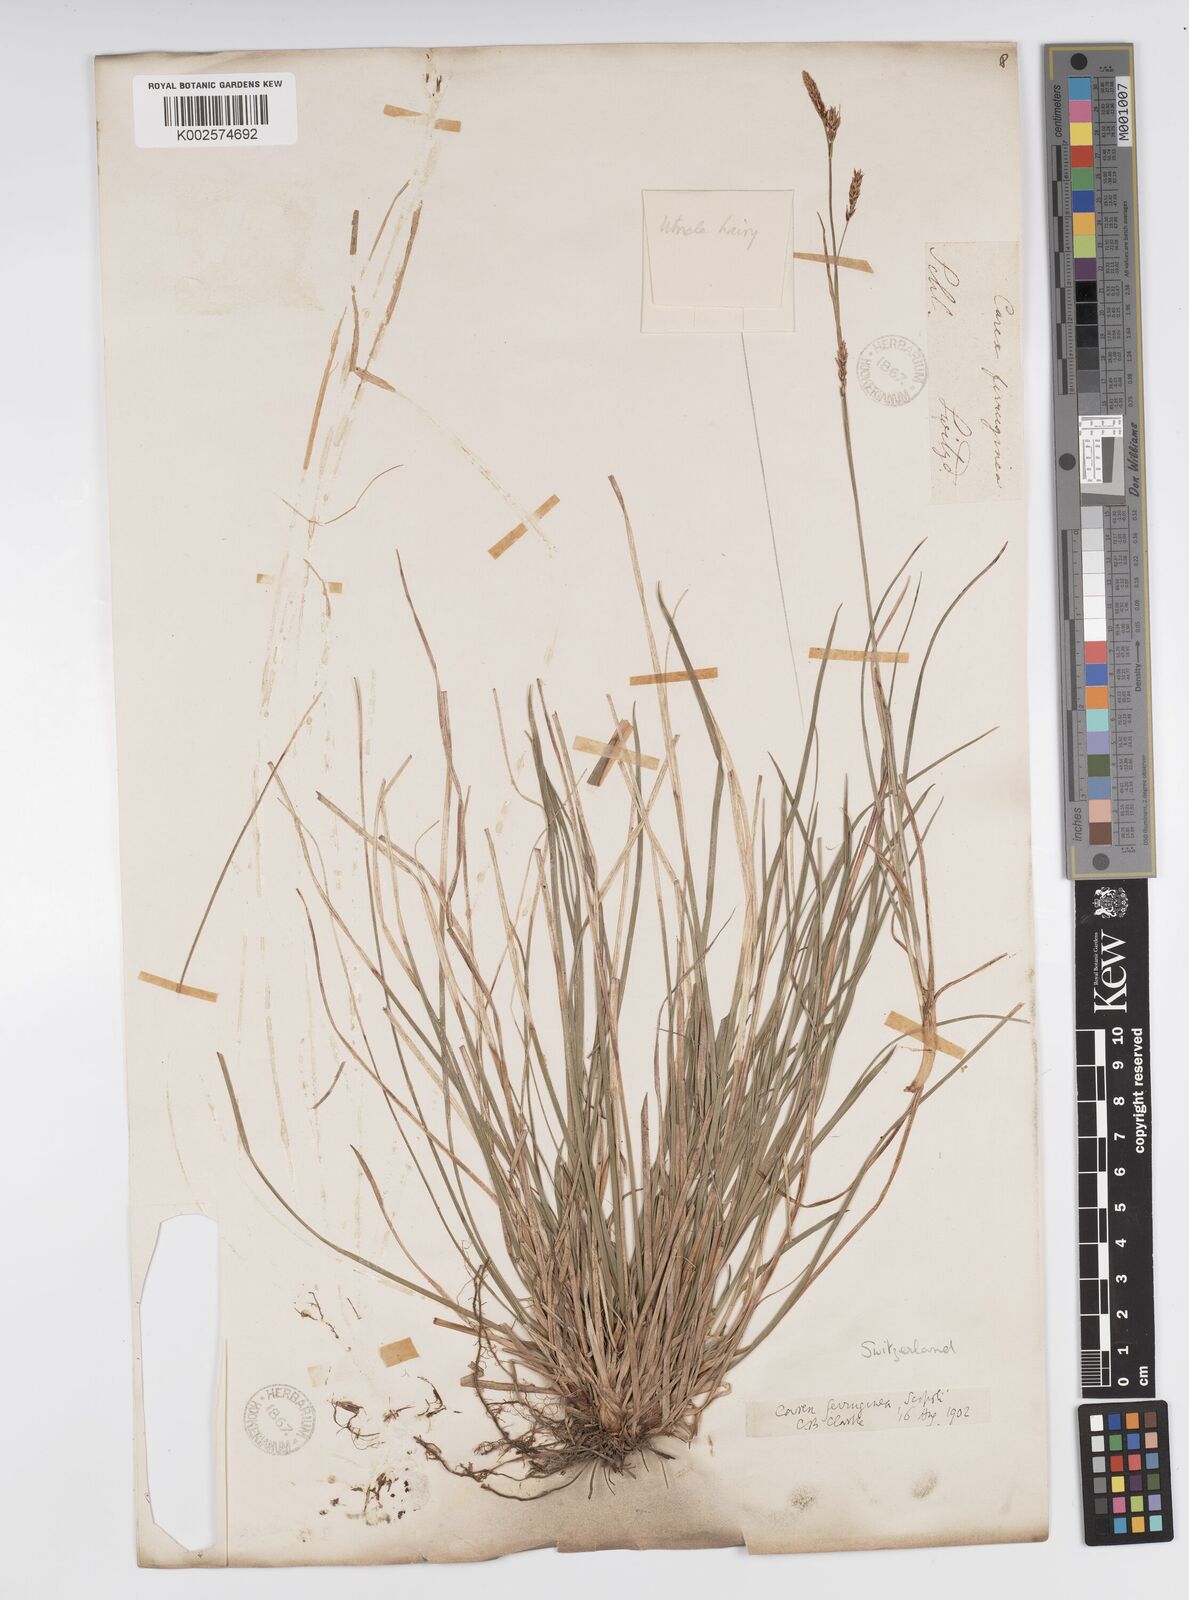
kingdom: Plantae
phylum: Tracheophyta
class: Liliopsida
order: Poales
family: Cyperaceae
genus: Carex
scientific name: Carex ferruginea
